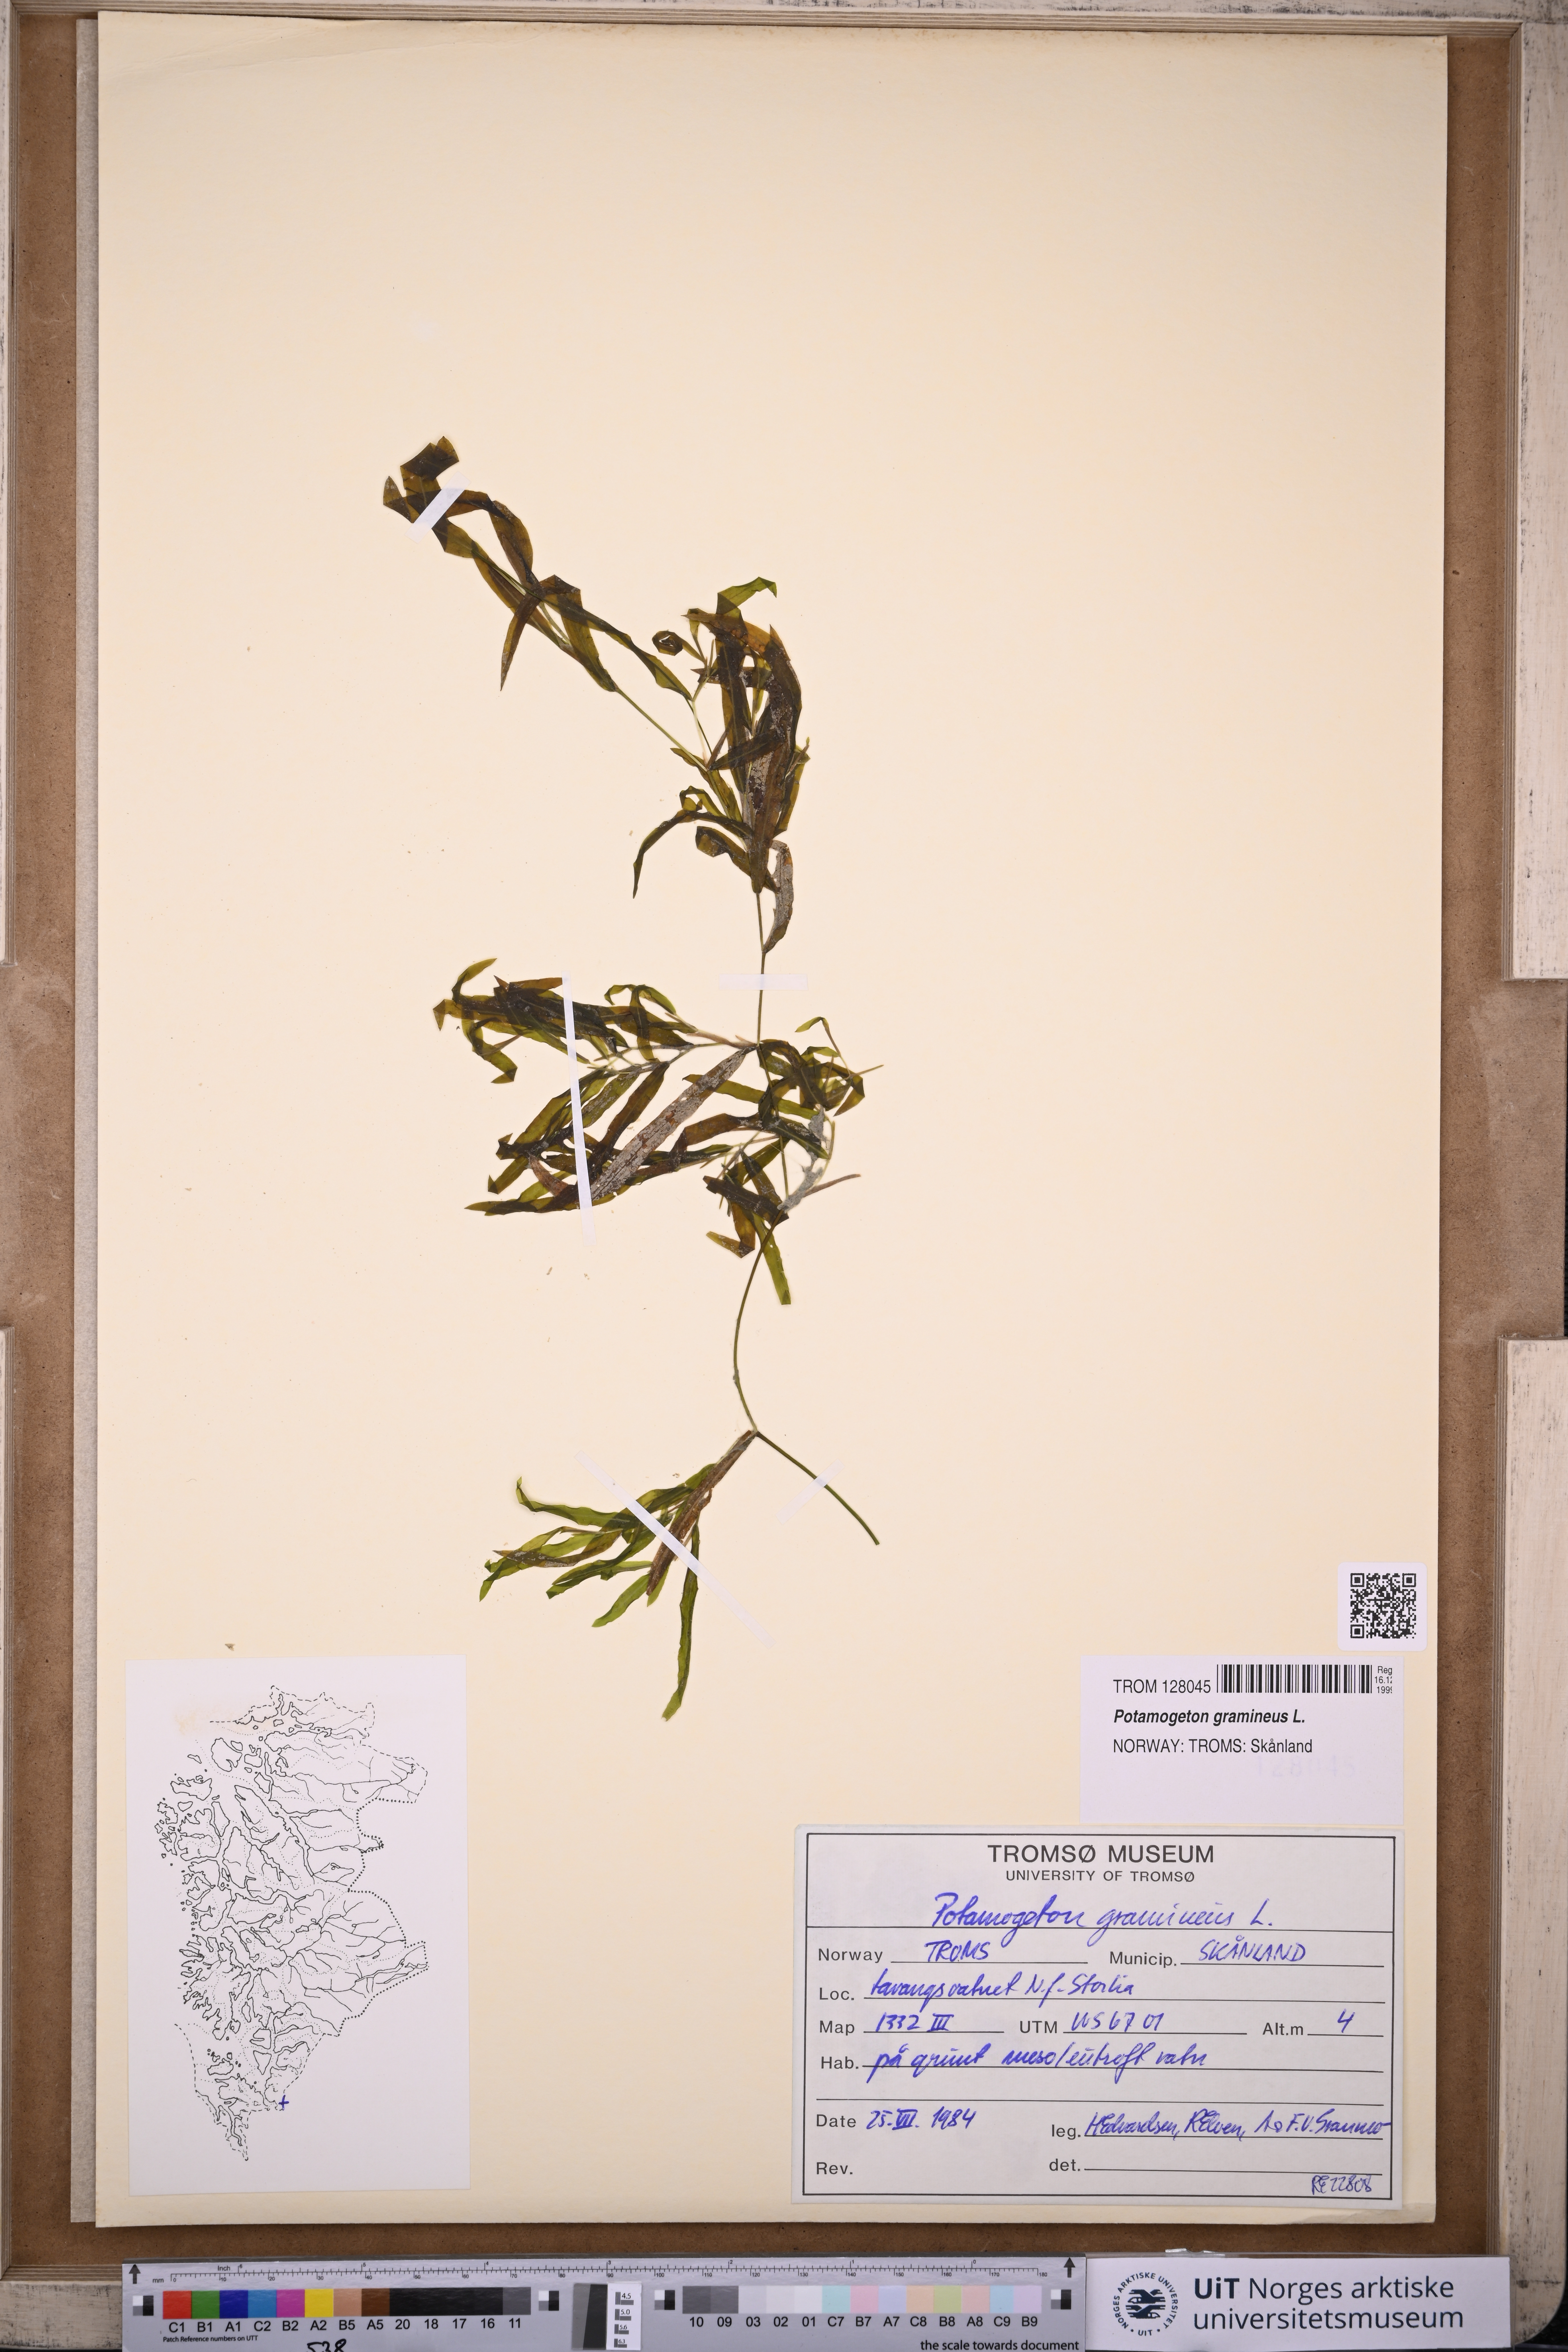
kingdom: Plantae
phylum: Tracheophyta
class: Liliopsida
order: Alismatales
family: Potamogetonaceae
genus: Potamogeton
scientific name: Potamogeton gramineus
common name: Various-leaved pondweed
